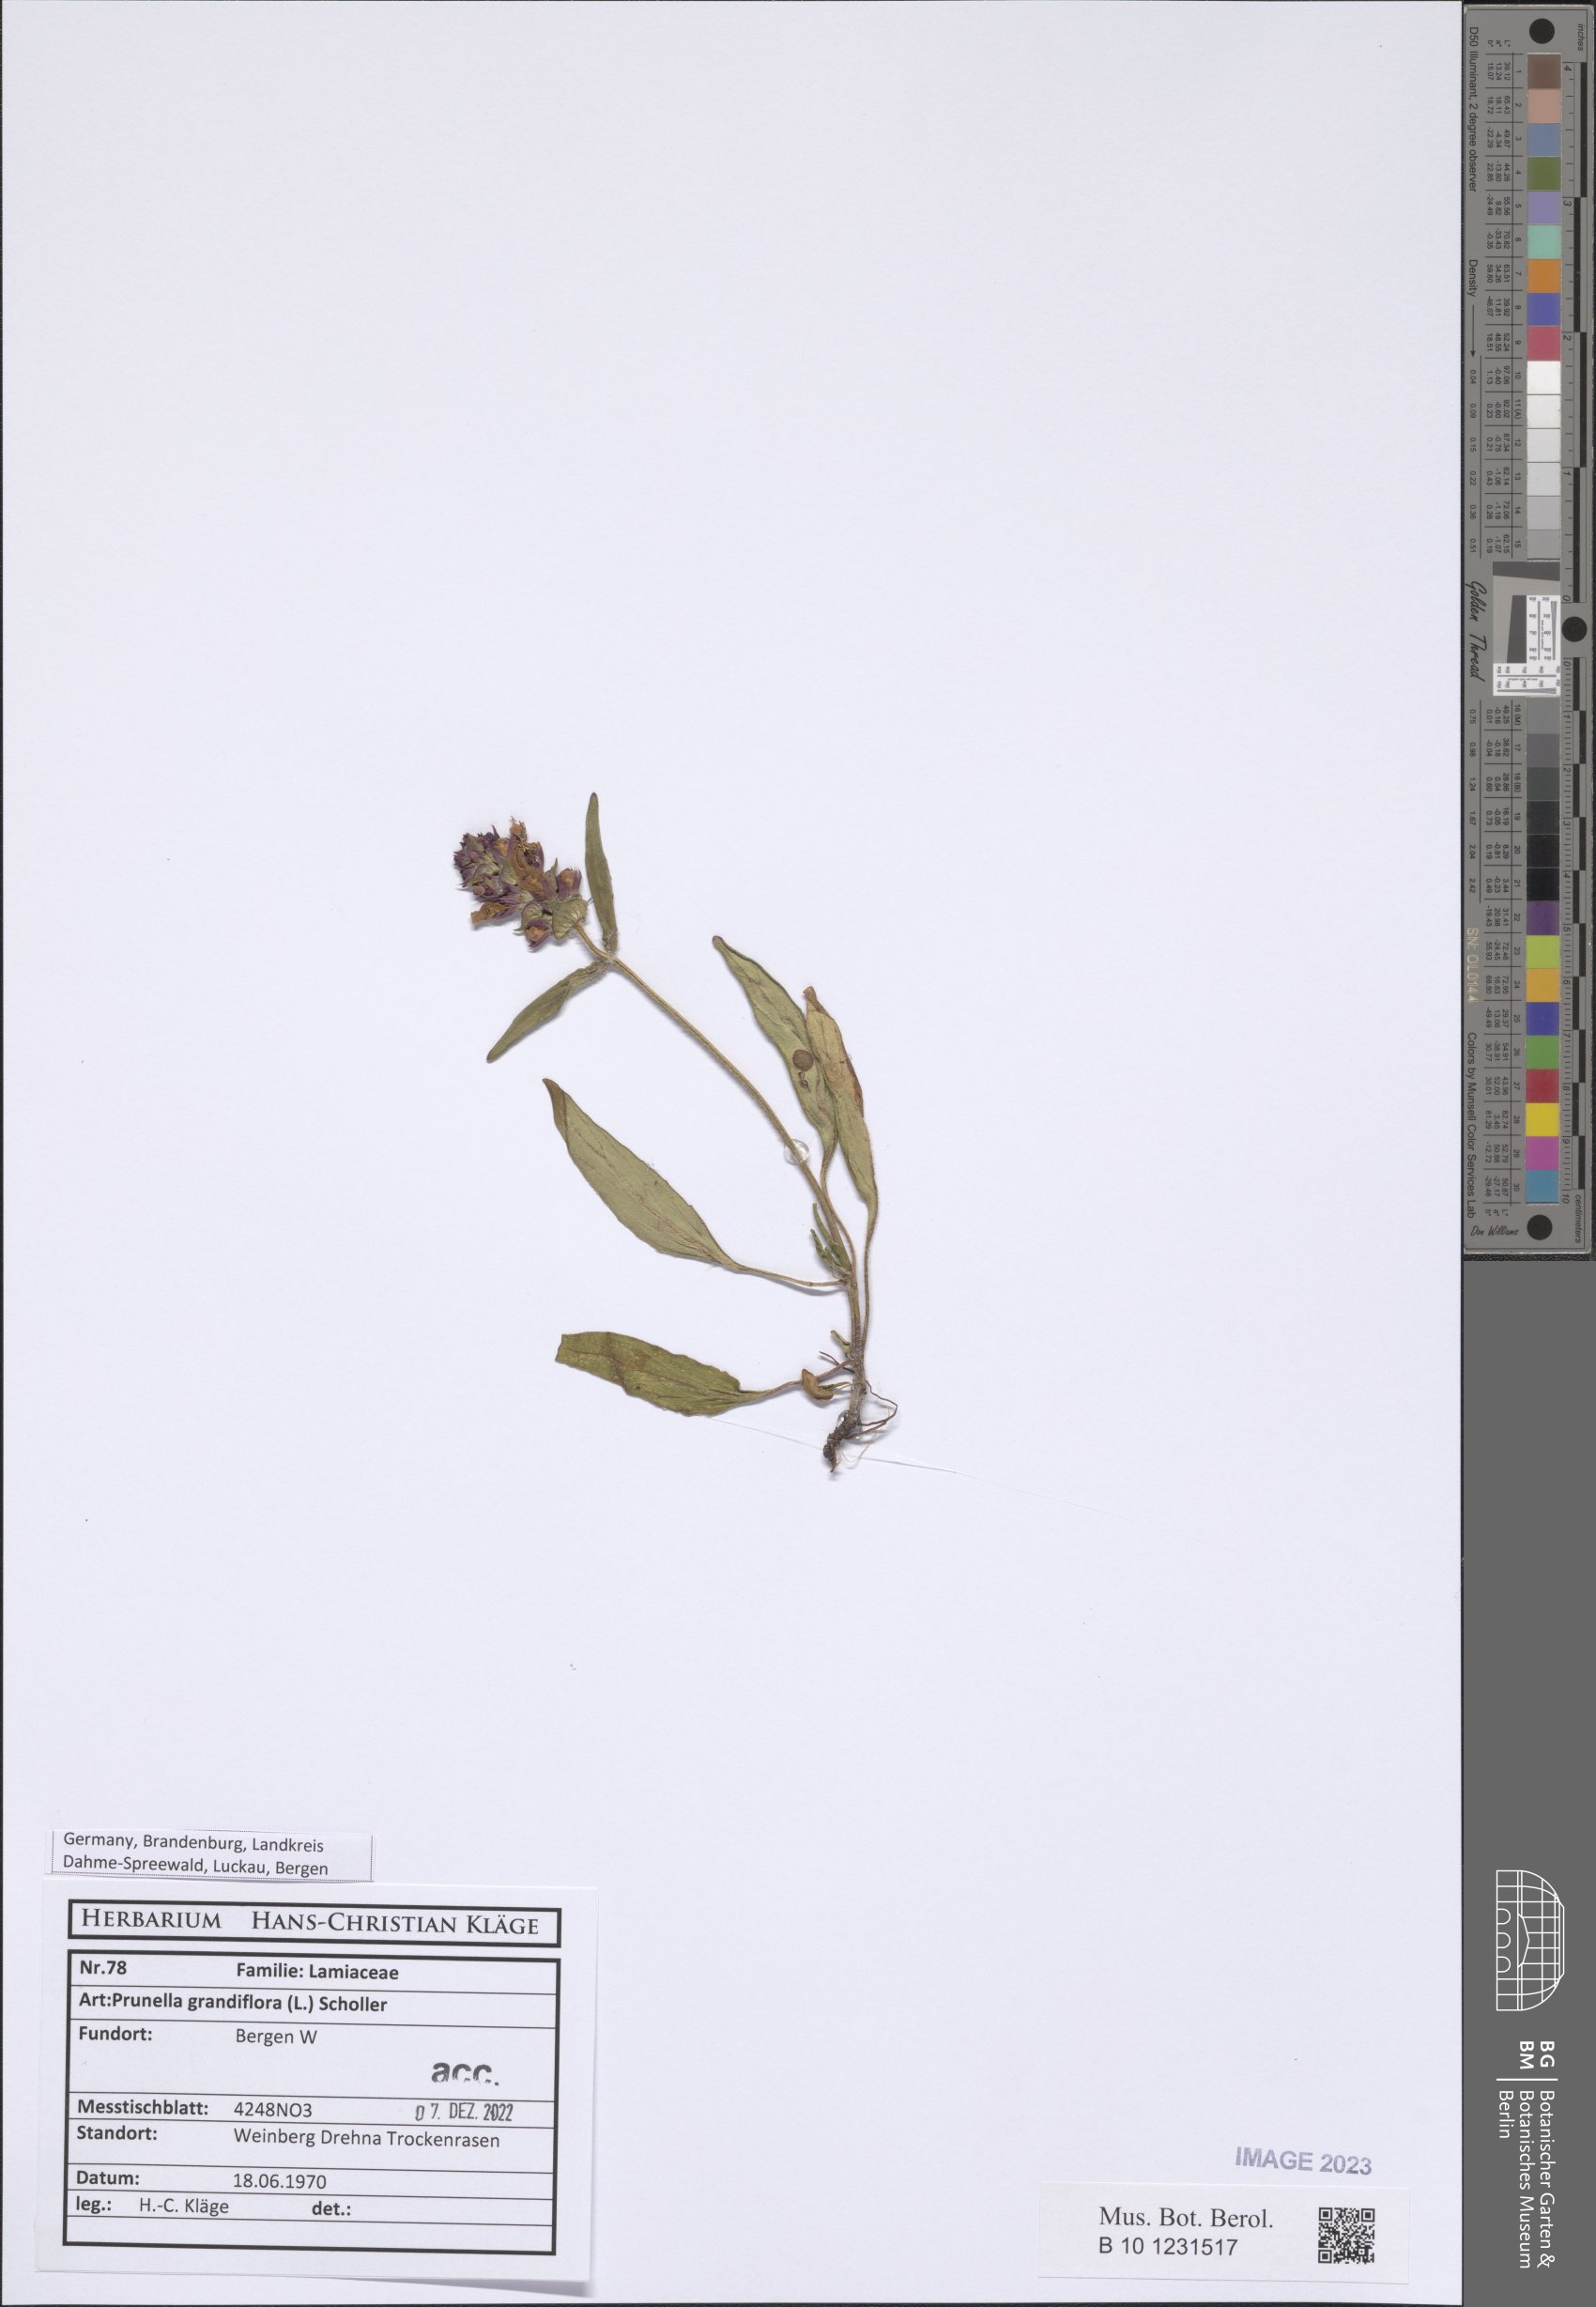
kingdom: Plantae
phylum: Tracheophyta
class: Magnoliopsida
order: Lamiales
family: Lamiaceae
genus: Prunella
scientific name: Prunella grandiflora
